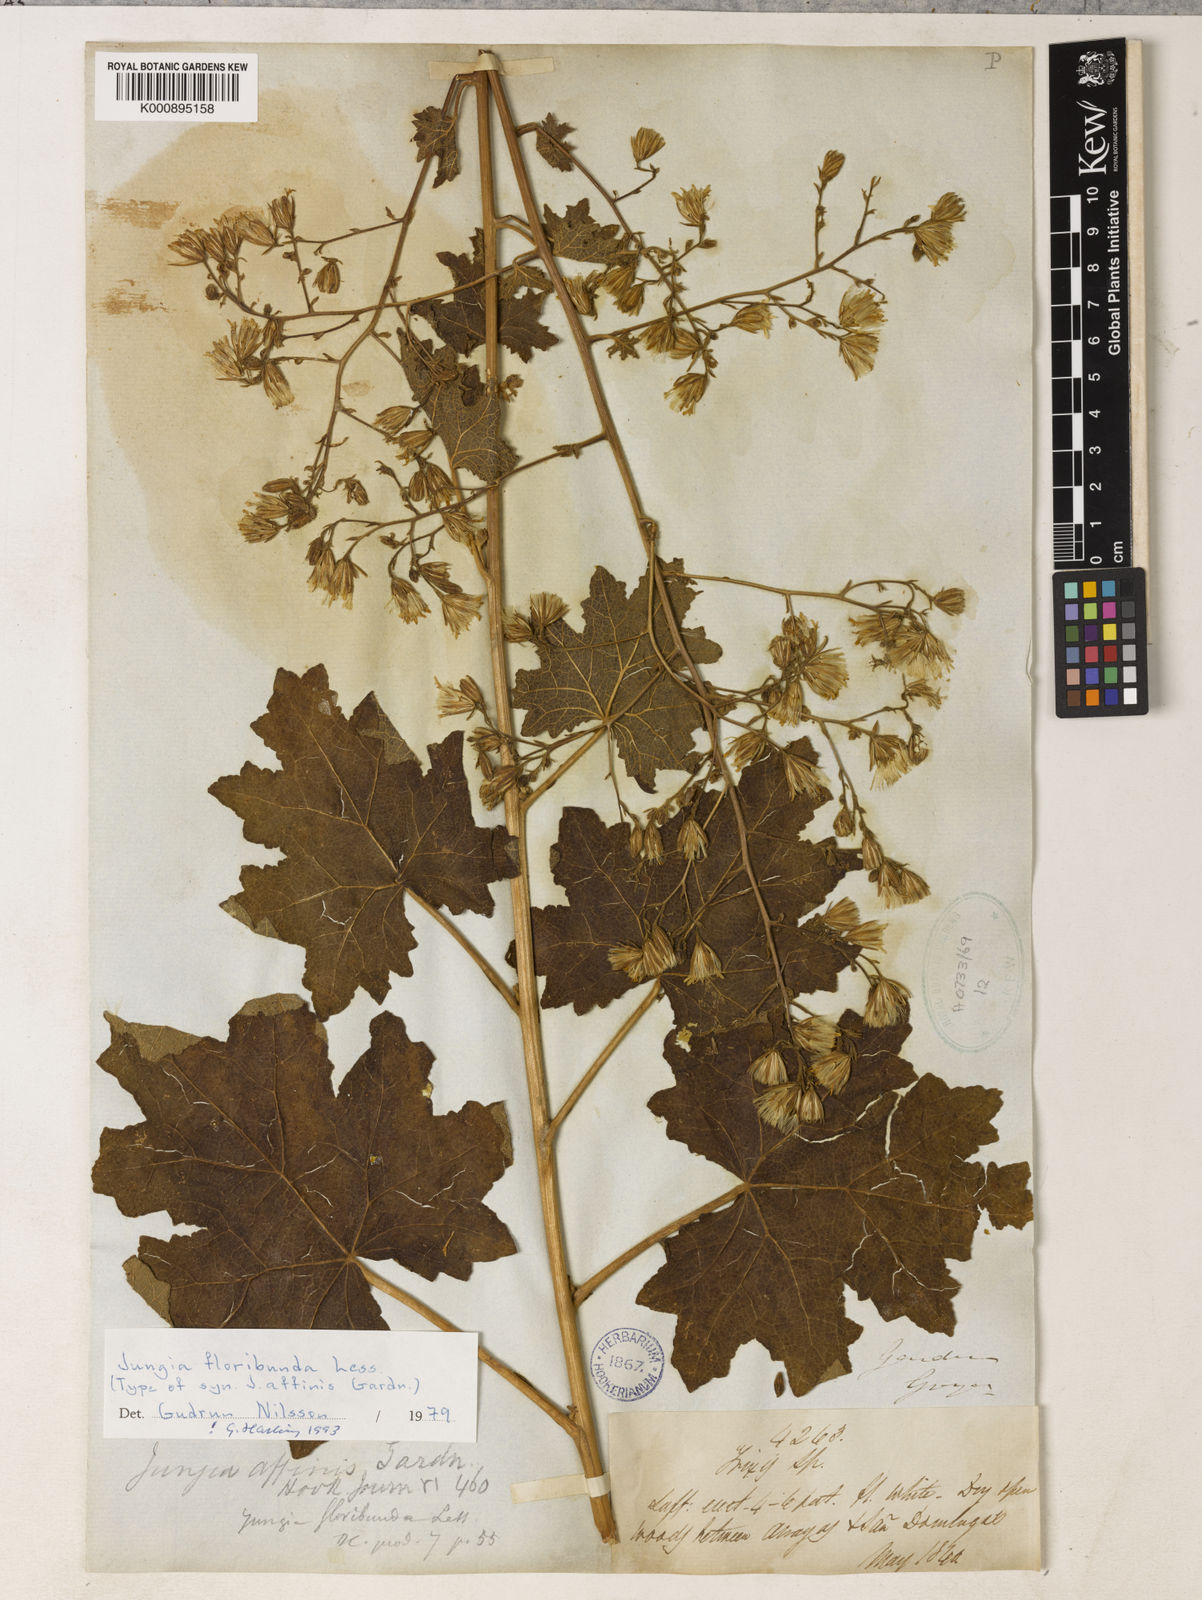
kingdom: Plantae
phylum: Tracheophyta
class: Magnoliopsida
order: Asterales
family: Asteraceae
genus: Jungia
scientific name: Jungia floribunda
